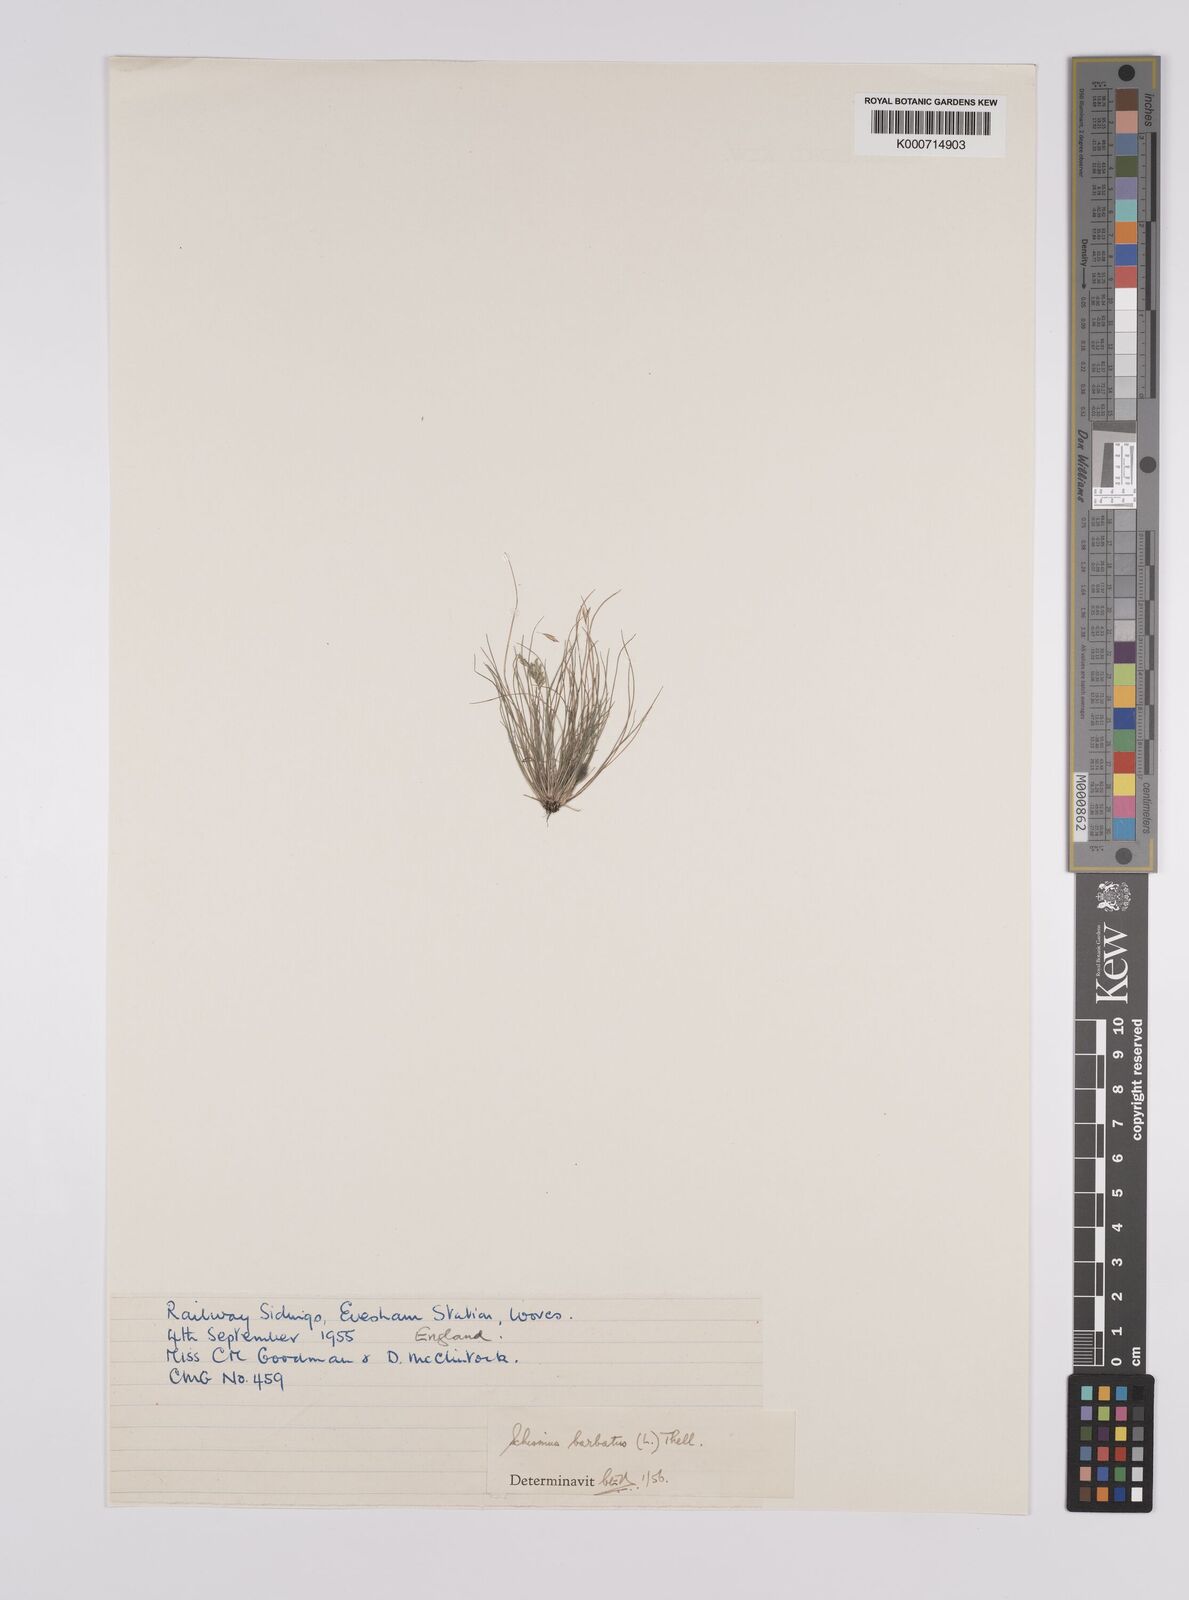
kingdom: Plantae
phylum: Tracheophyta
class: Liliopsida
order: Poales
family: Poaceae
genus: Schismus
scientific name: Schismus barbatus
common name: Kelch-grass
